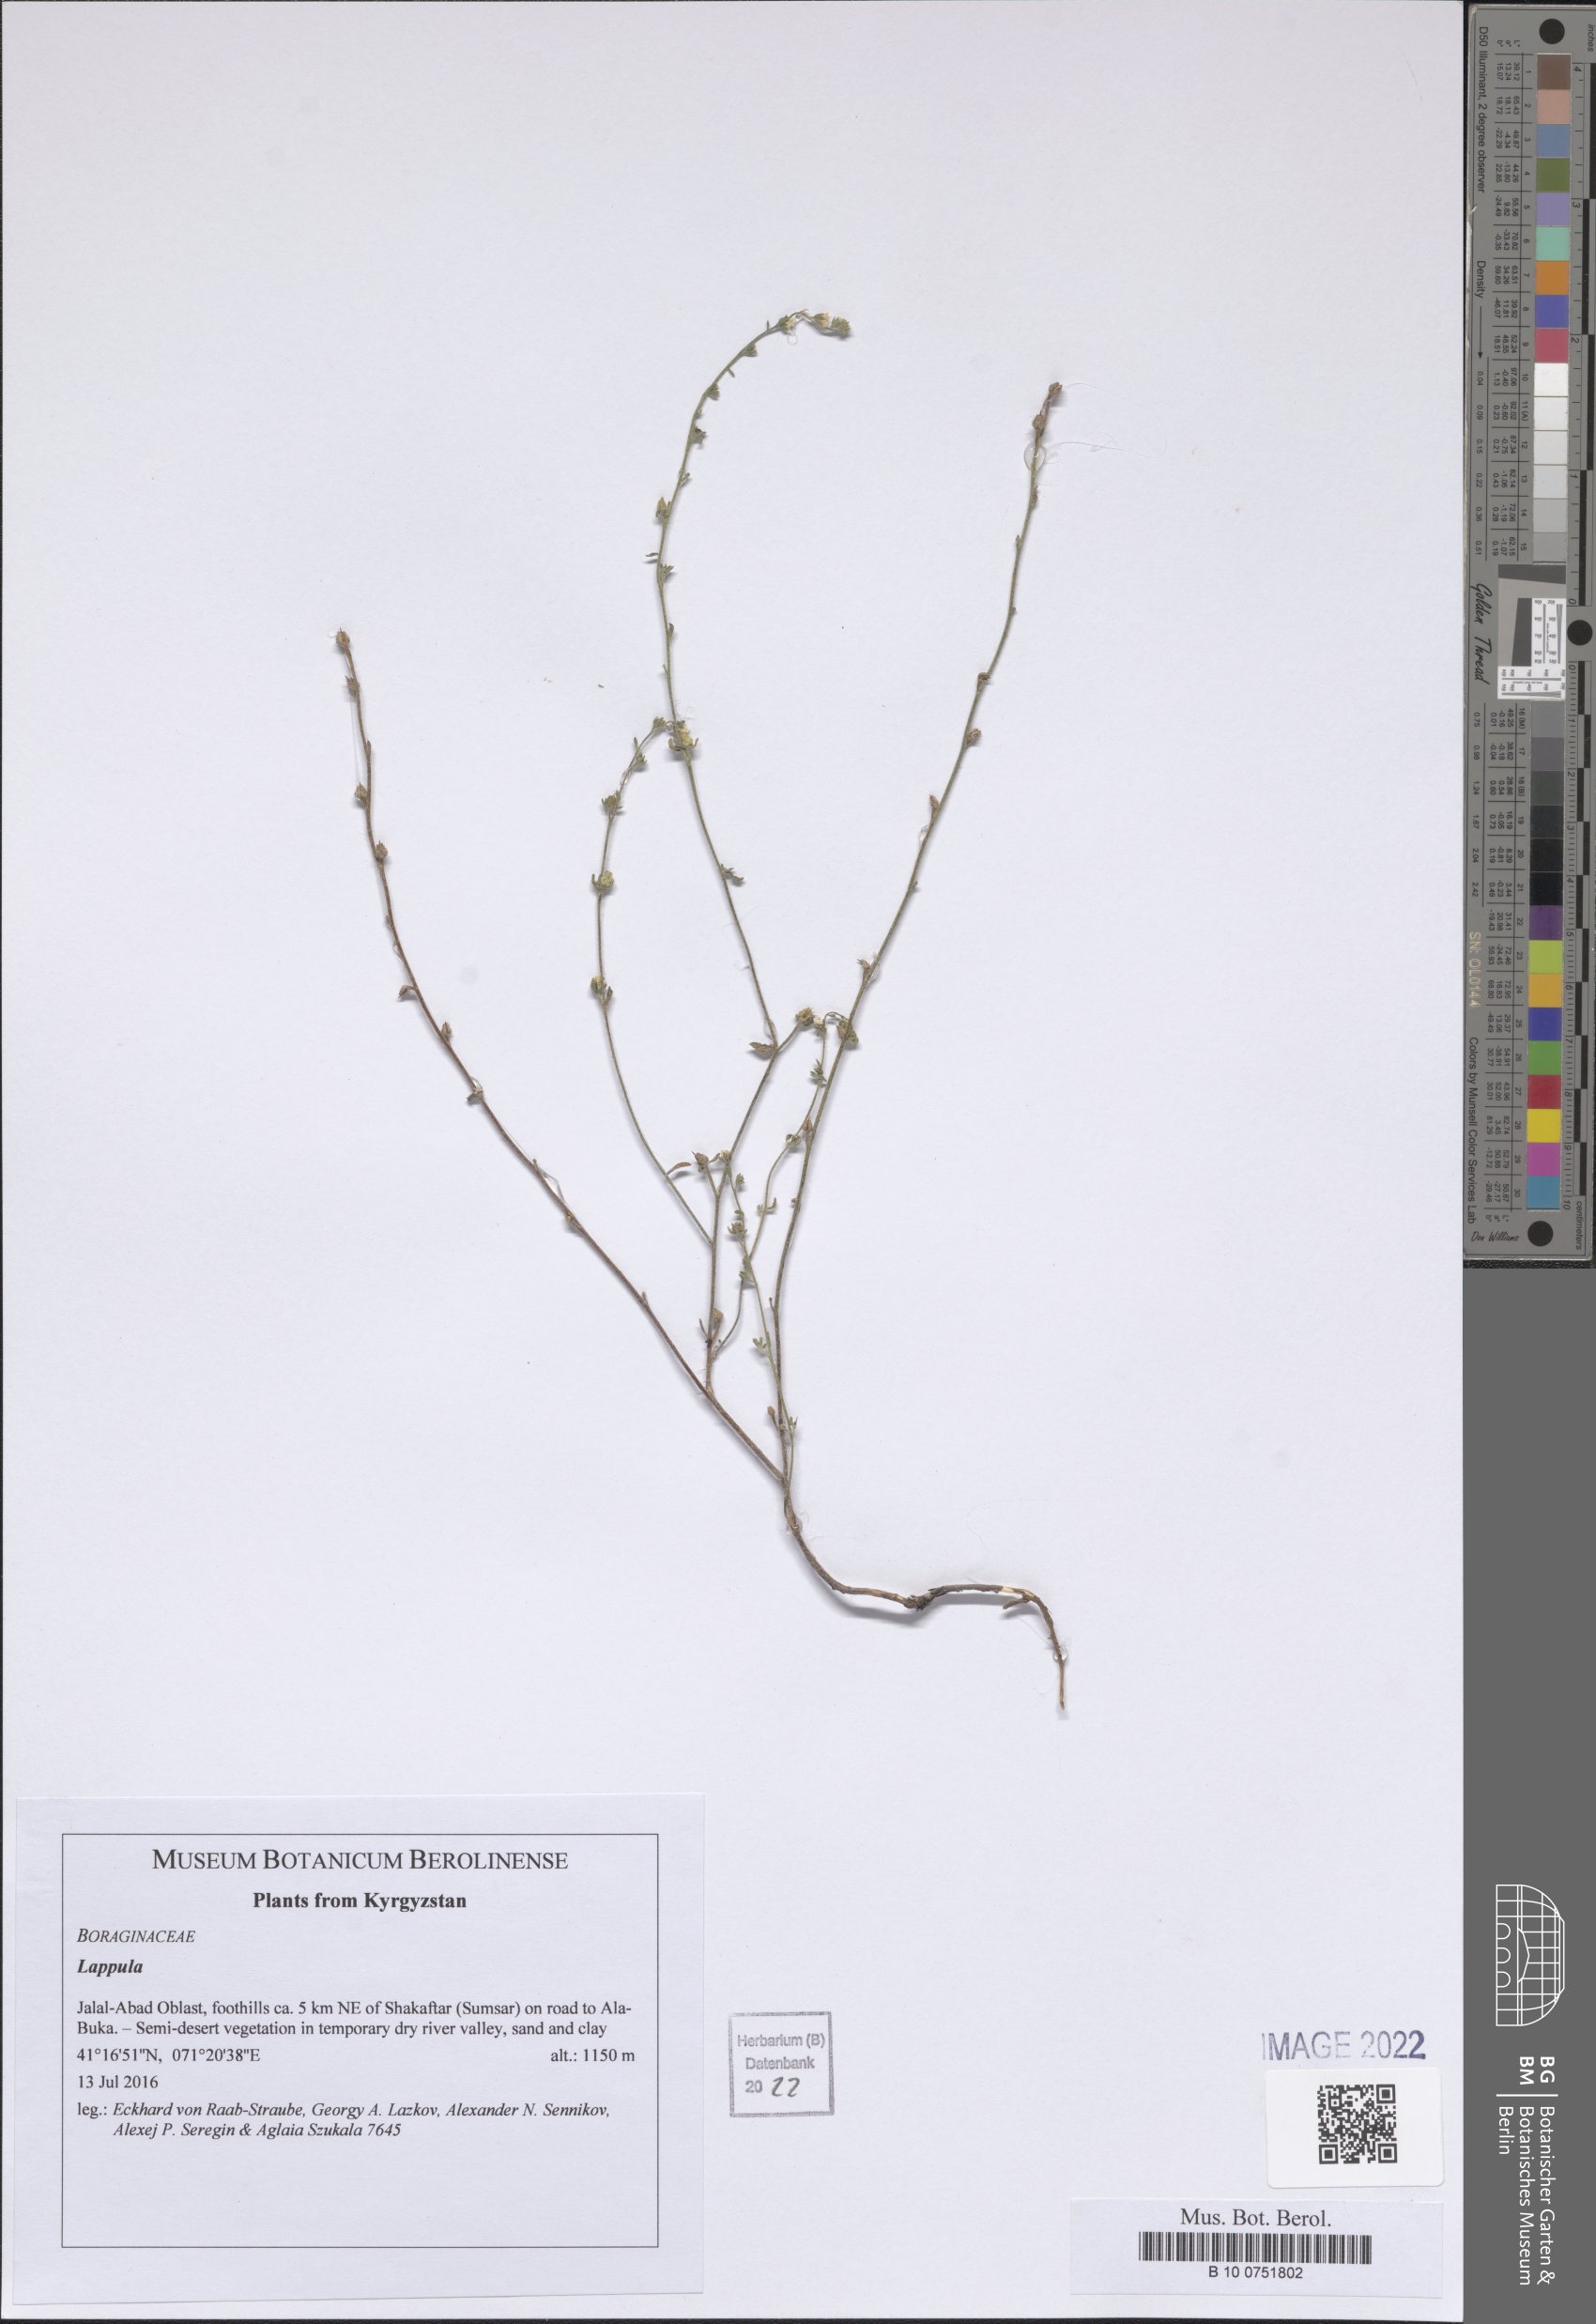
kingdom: Plantae
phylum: Tracheophyta
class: Magnoliopsida
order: Boraginales
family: Boraginaceae
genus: Lappula
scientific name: Lappula
